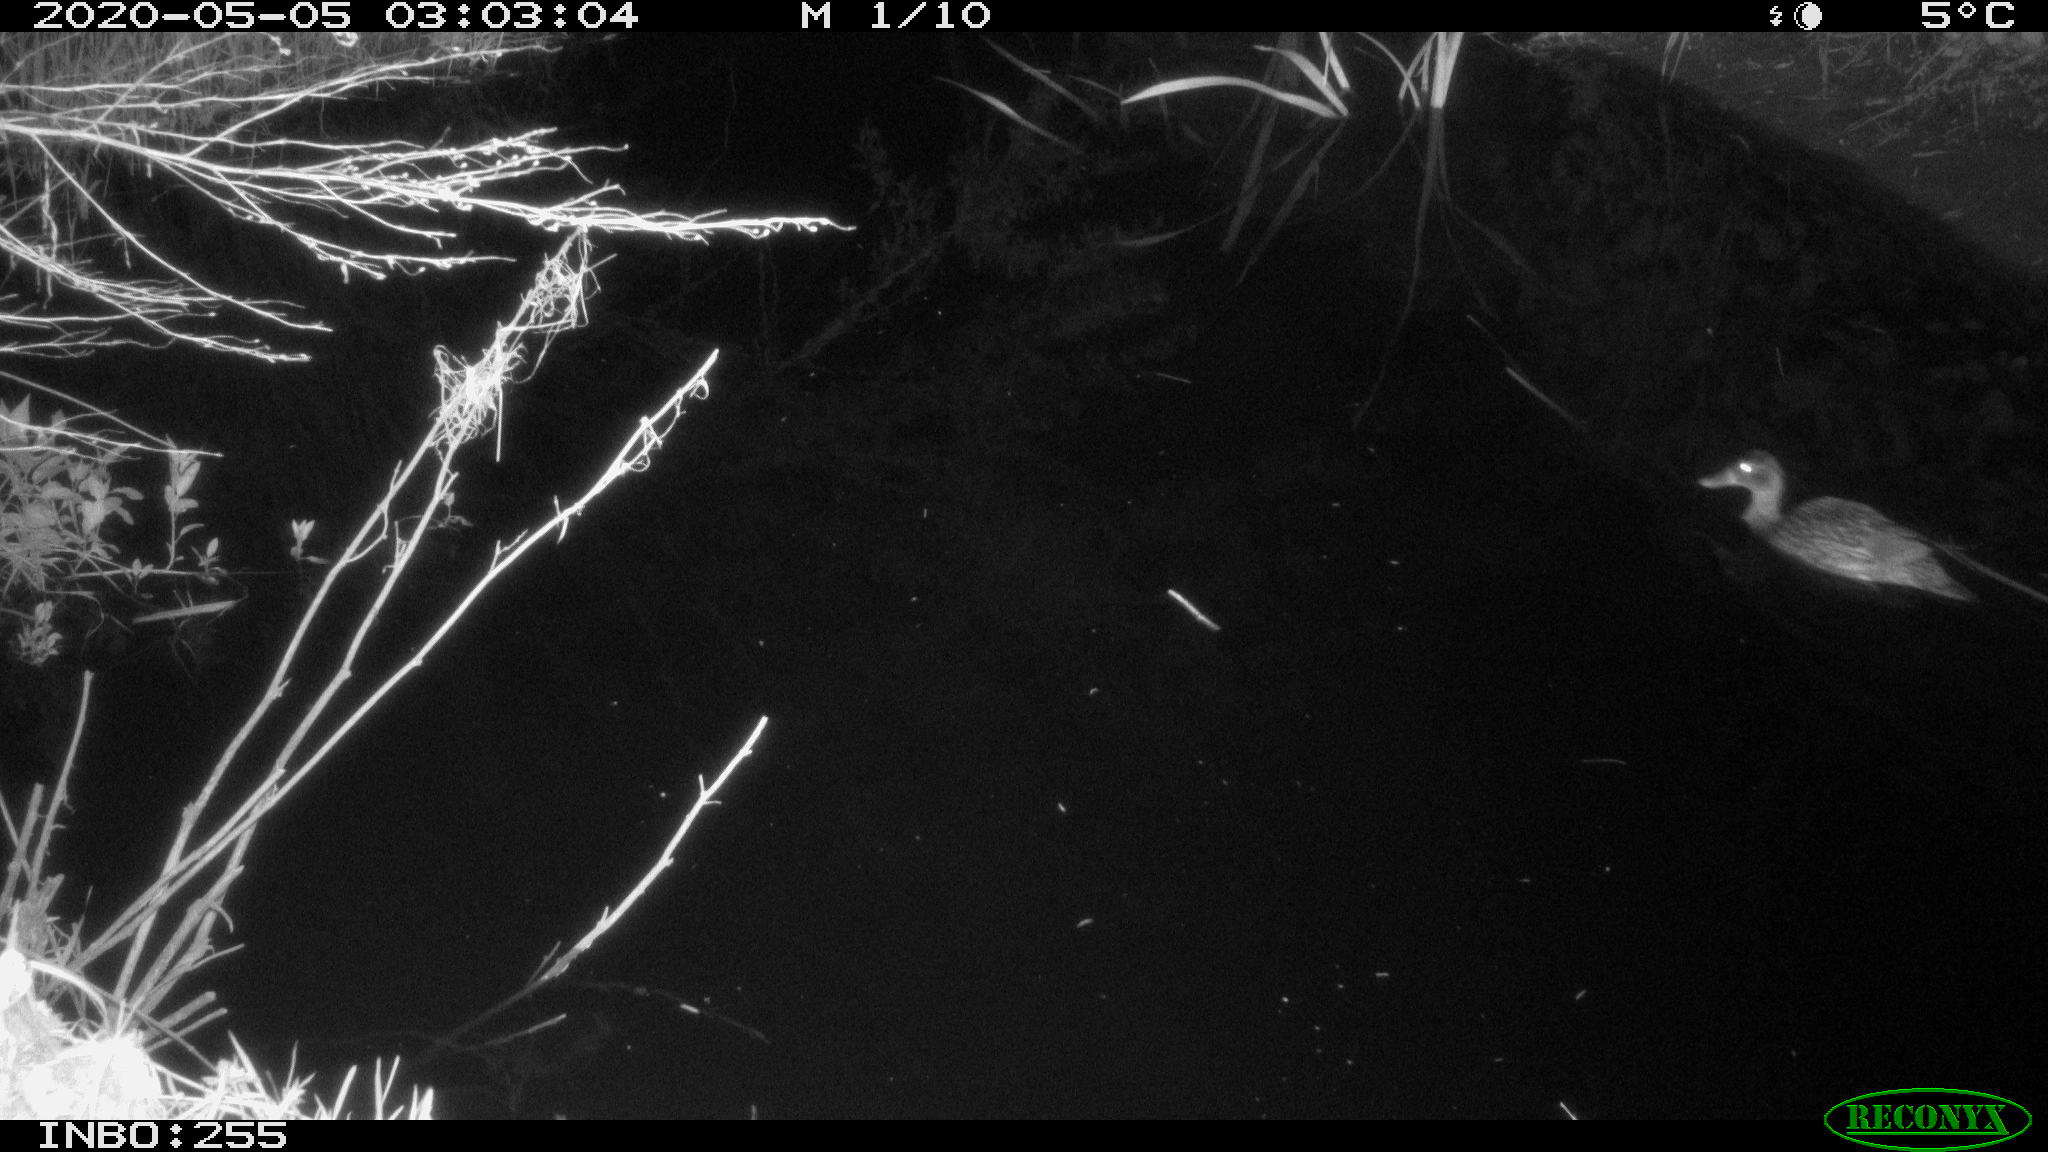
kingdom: Animalia
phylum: Chordata
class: Aves
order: Anseriformes
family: Anatidae
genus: Anas
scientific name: Anas platyrhynchos
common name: Mallard
